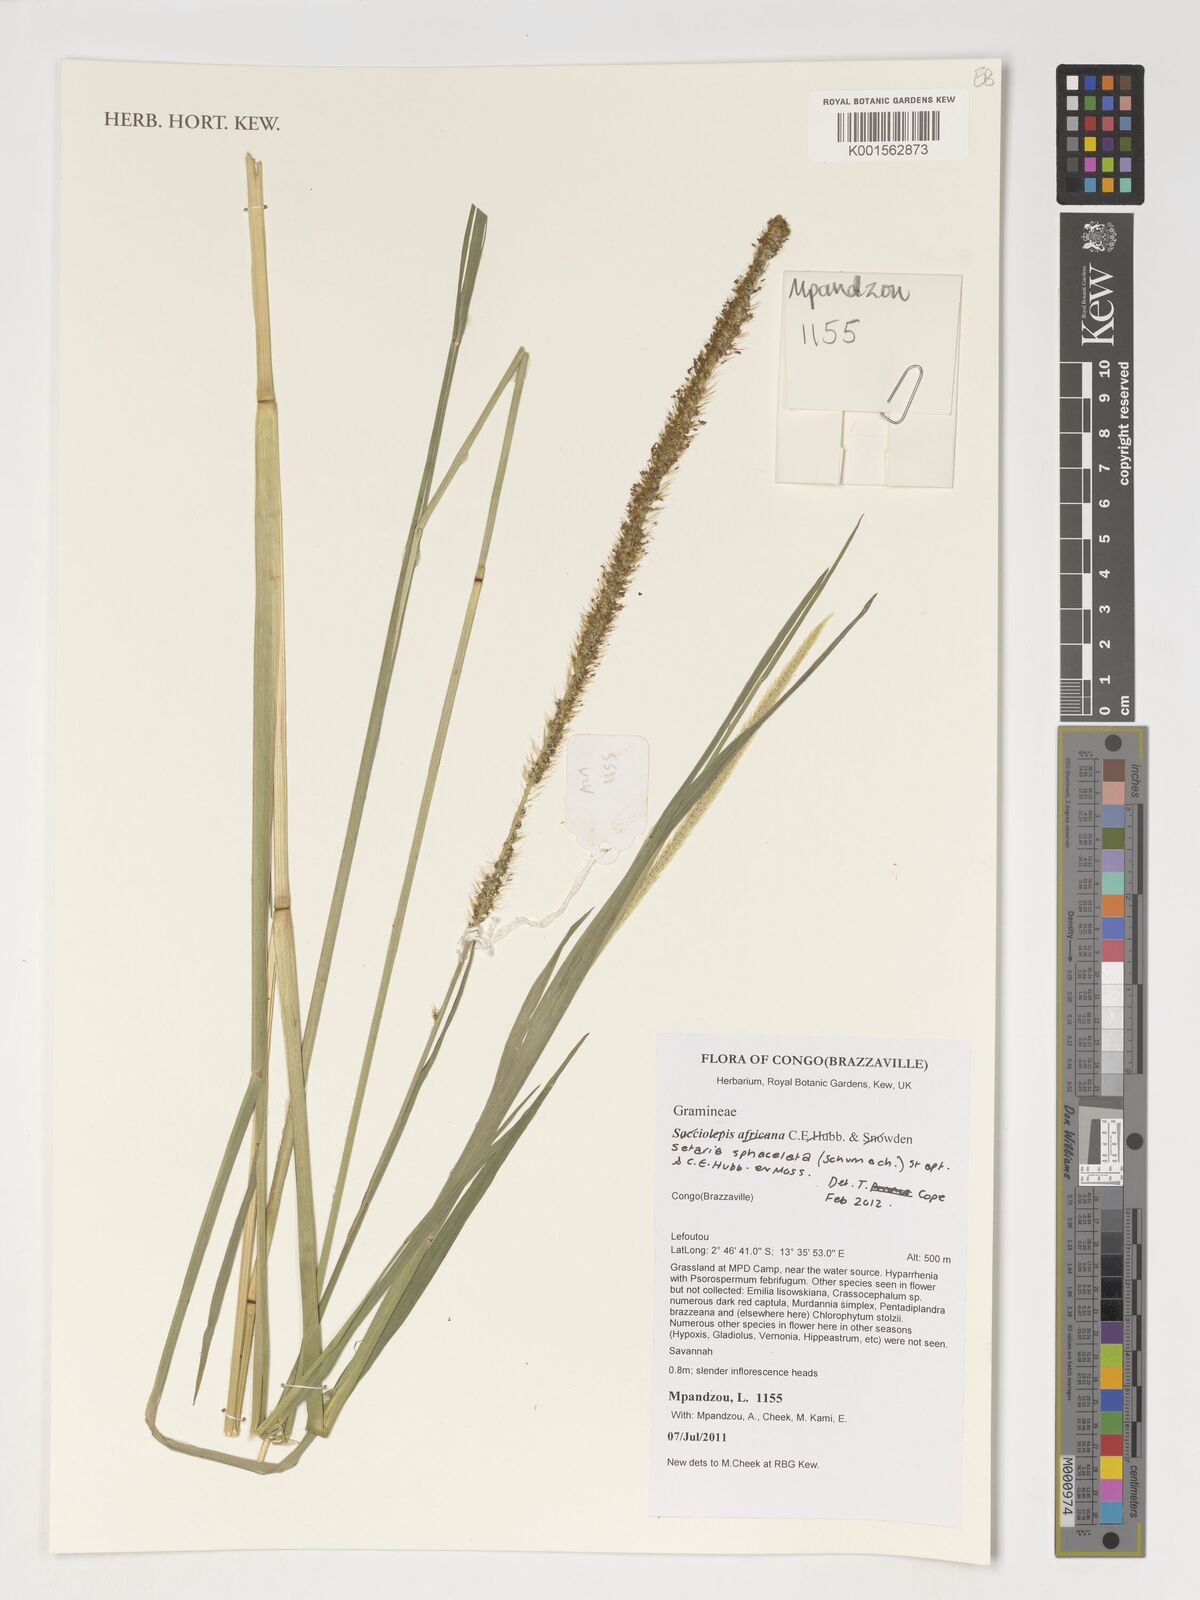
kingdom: Plantae
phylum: Tracheophyta
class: Liliopsida
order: Poales
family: Poaceae
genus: Setaria
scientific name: Setaria sphacelata
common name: African bristlegrass
